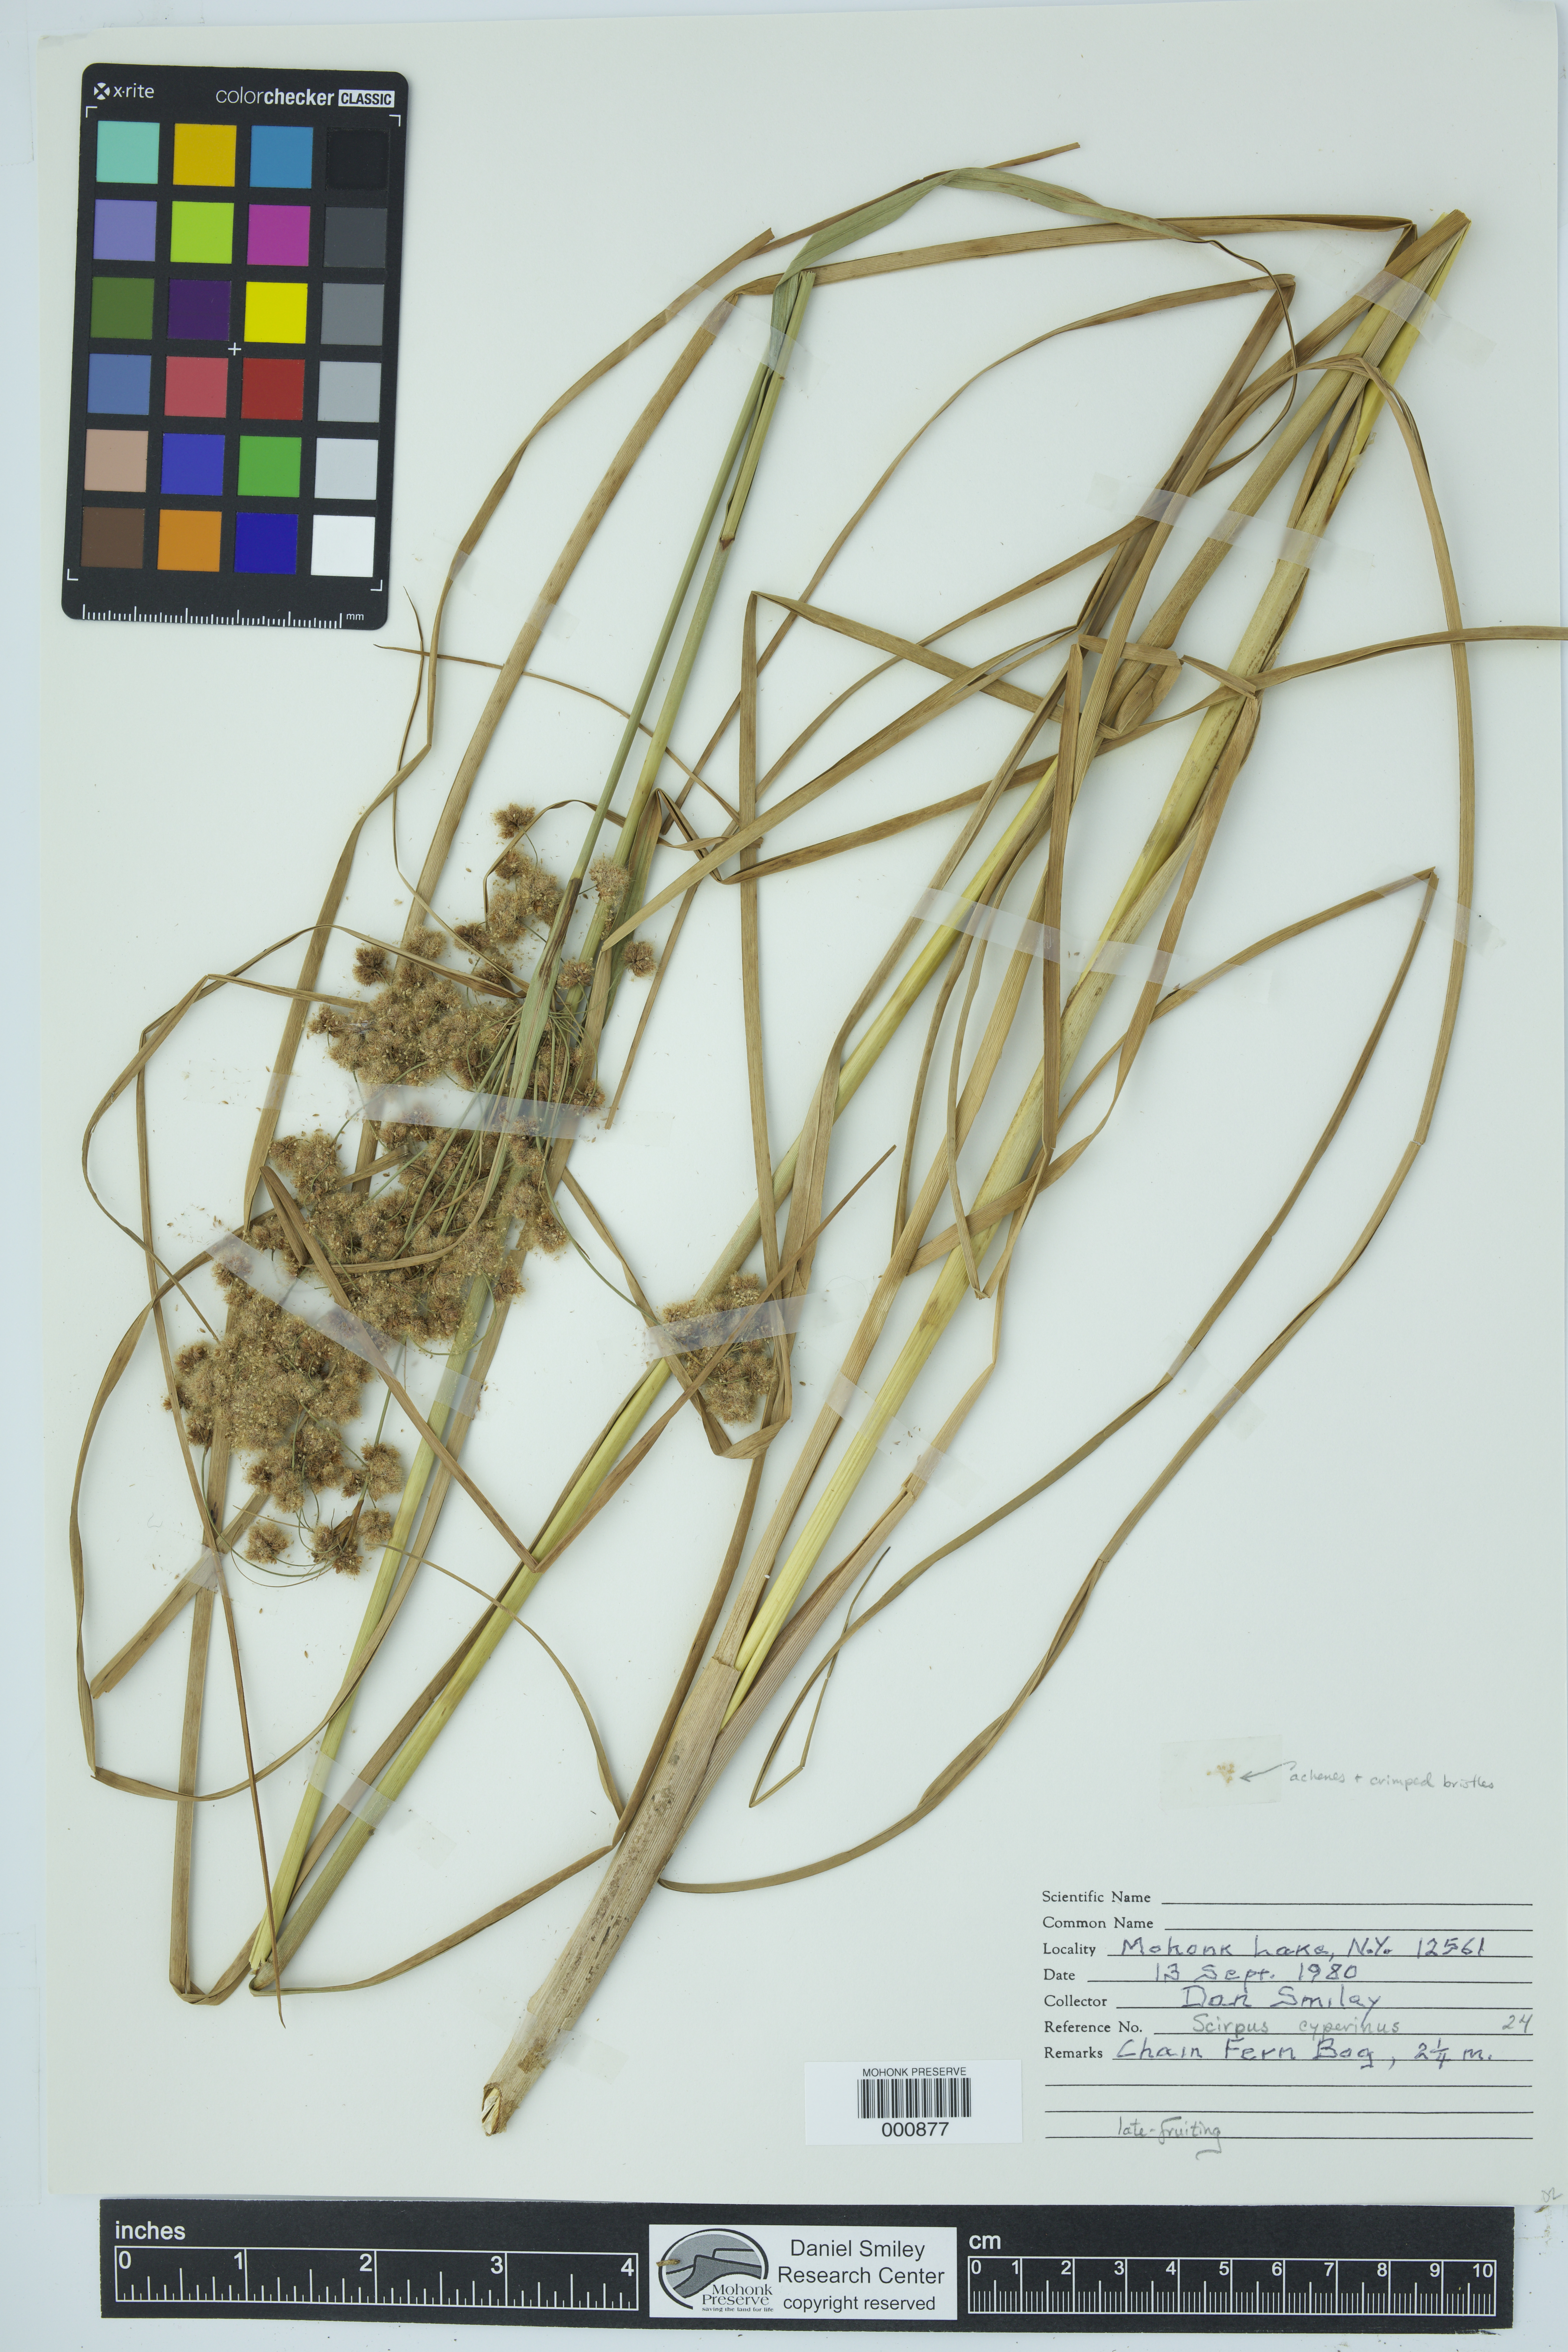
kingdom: Plantae
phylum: Tracheophyta
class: Liliopsida
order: Poales
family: Cyperaceae
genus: Scirpus
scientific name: Scirpus cyperinus
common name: Black-sheathed bulrush
